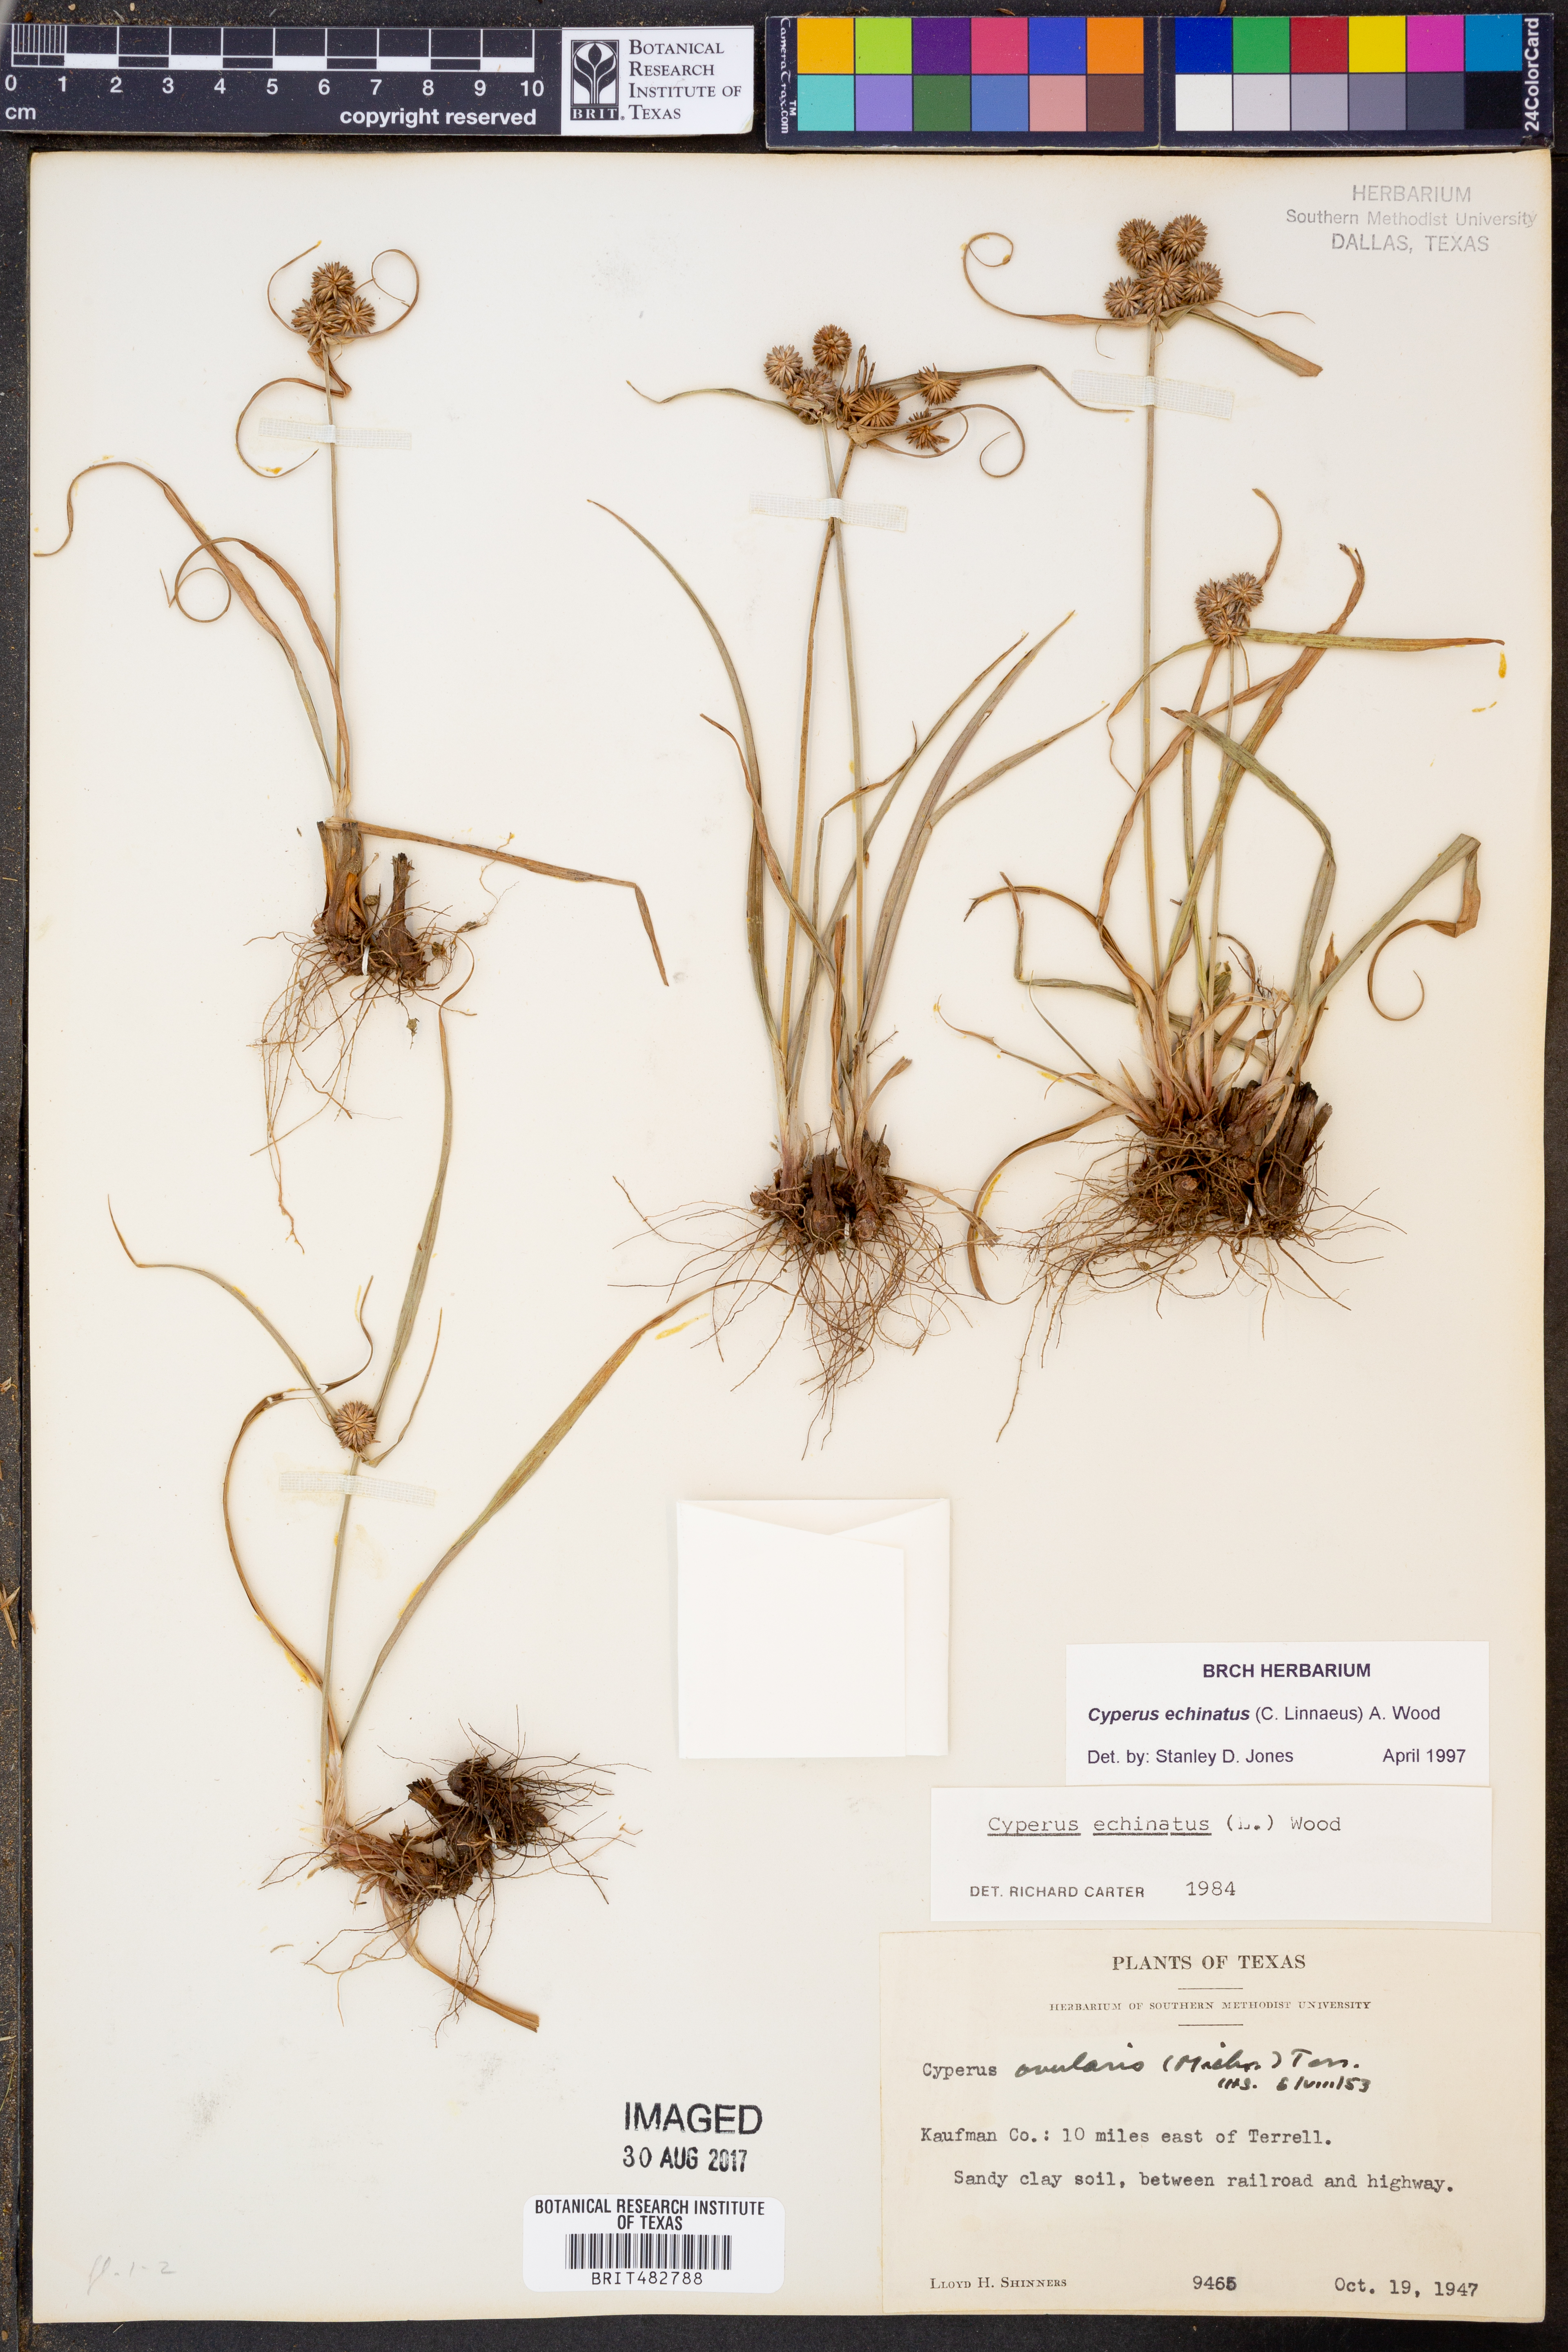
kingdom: Plantae
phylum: Tracheophyta
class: Liliopsida
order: Poales
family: Cyperaceae
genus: Cyperus
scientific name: Cyperus echinatus
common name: Teasel sedge
